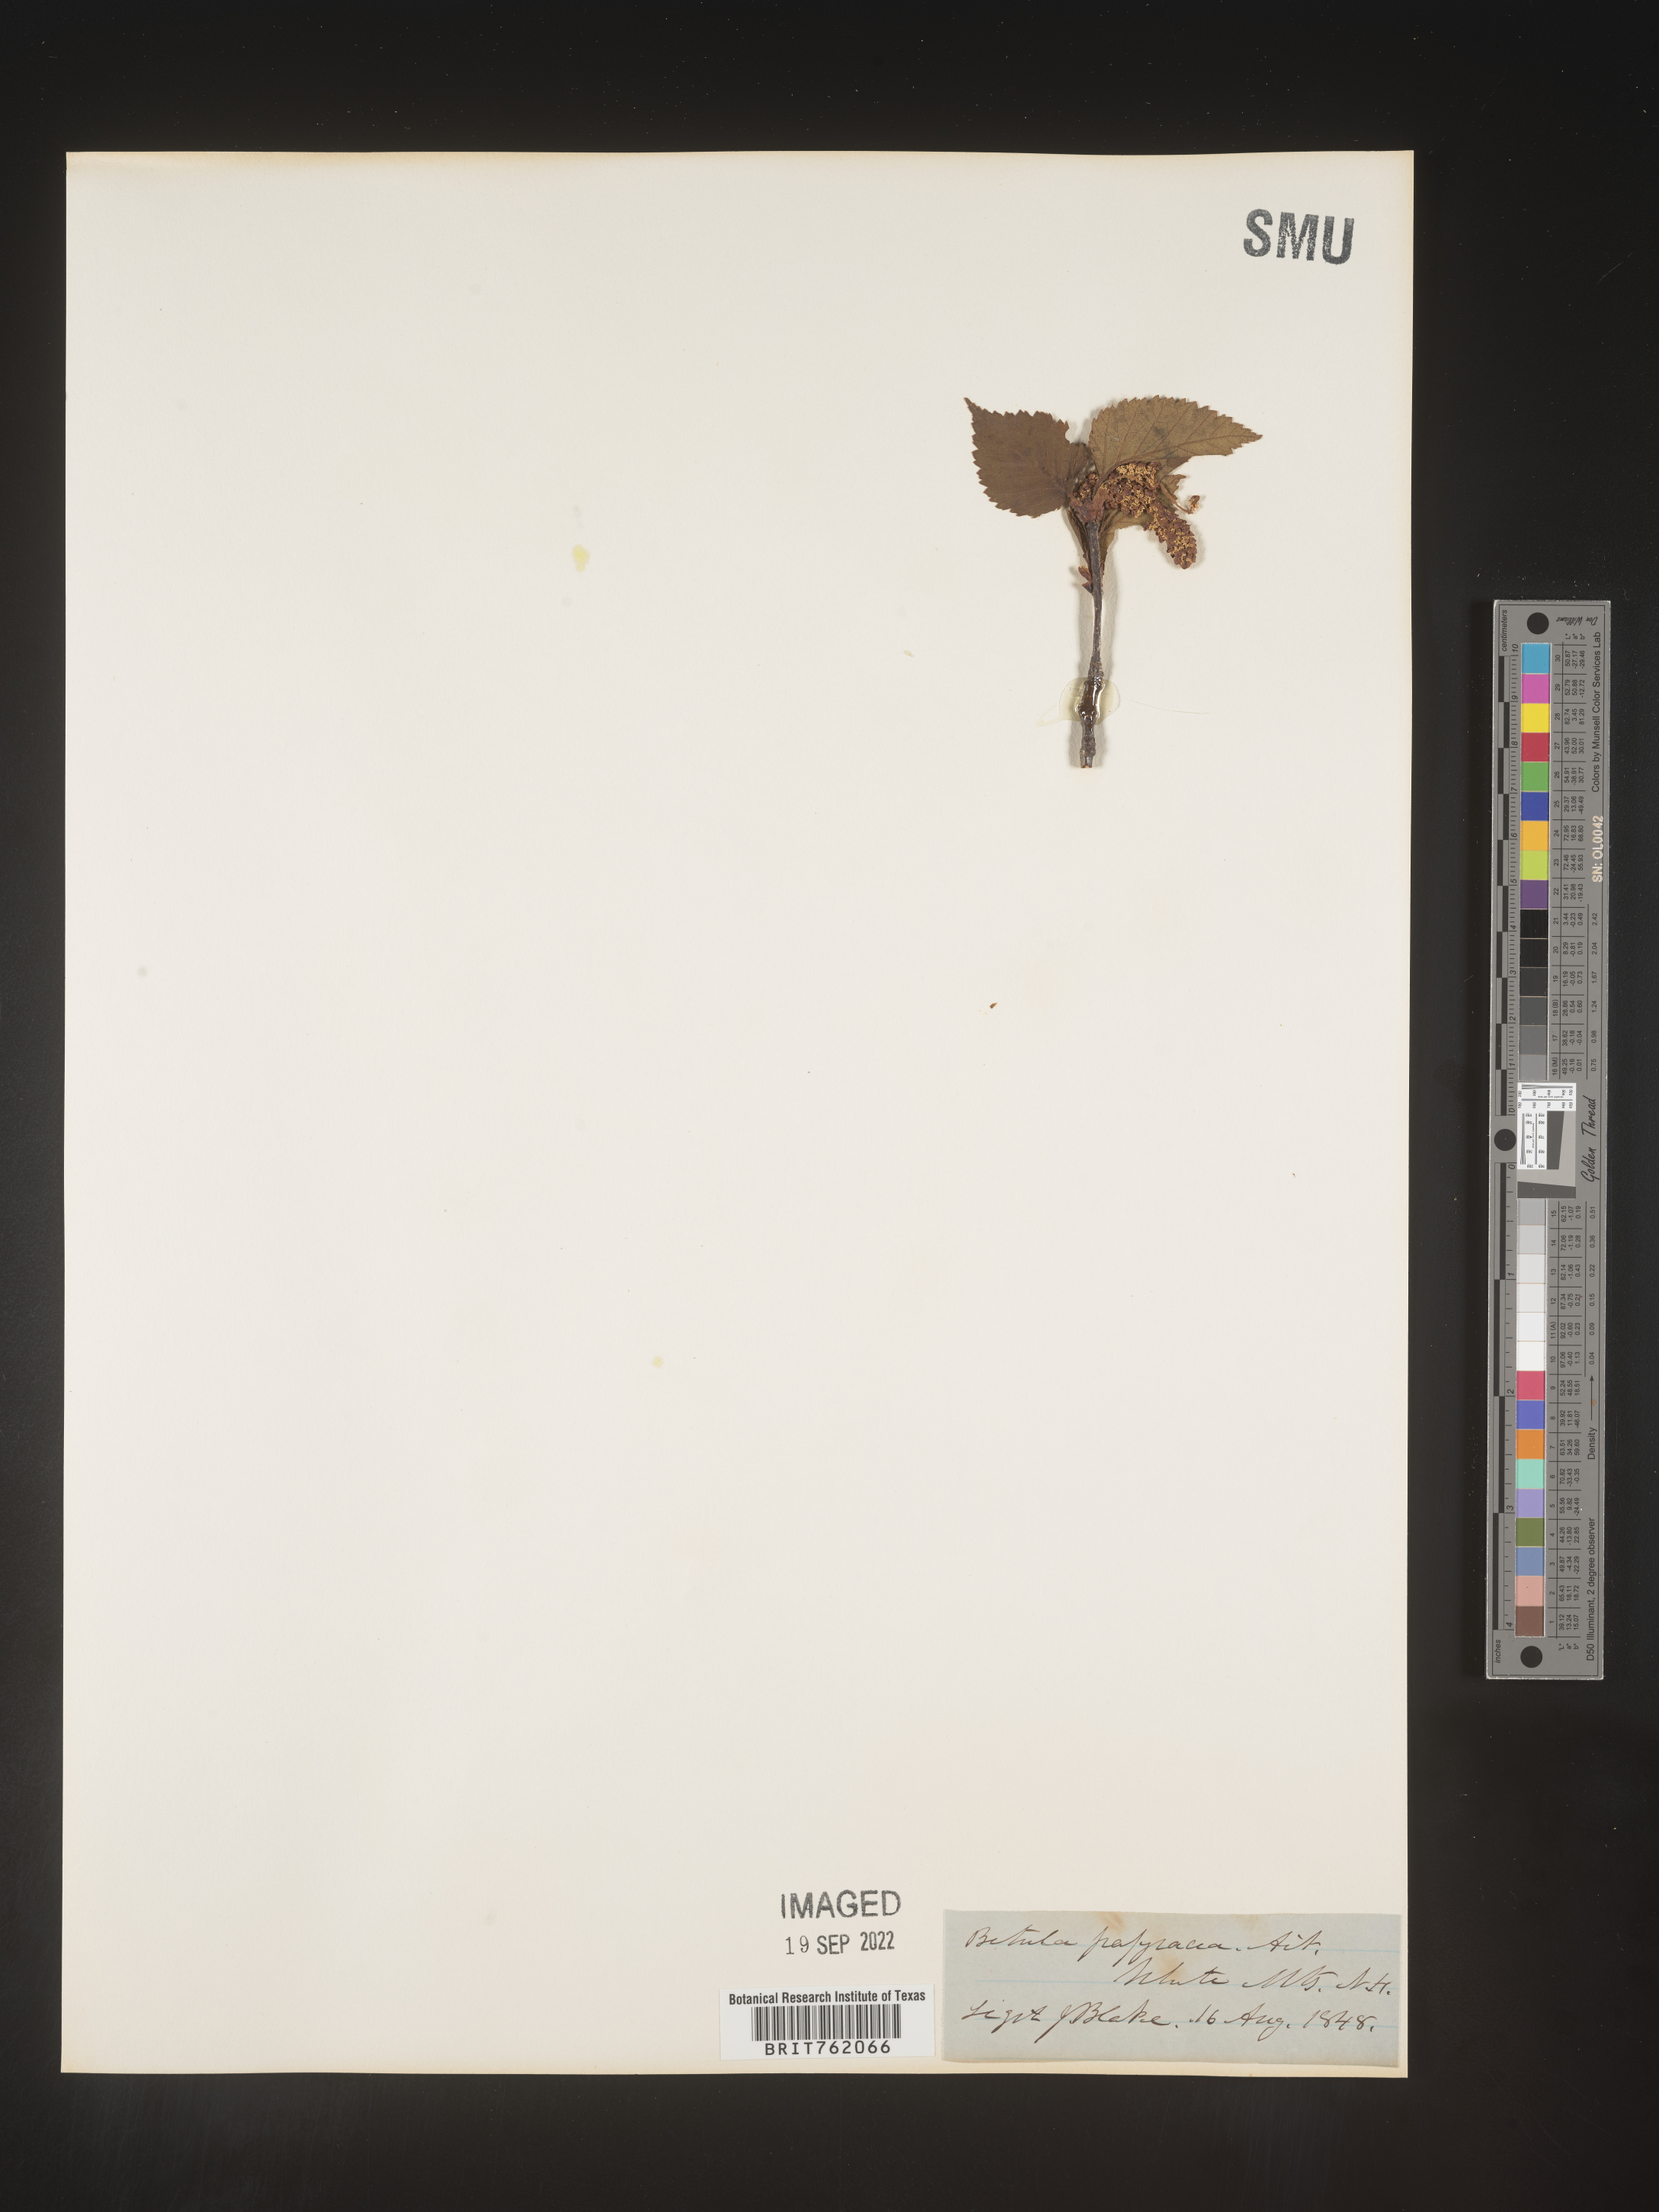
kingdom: Plantae
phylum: Tracheophyta
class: Magnoliopsida
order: Fagales
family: Betulaceae
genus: Betula
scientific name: Betula papyrifera
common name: Paper birch
